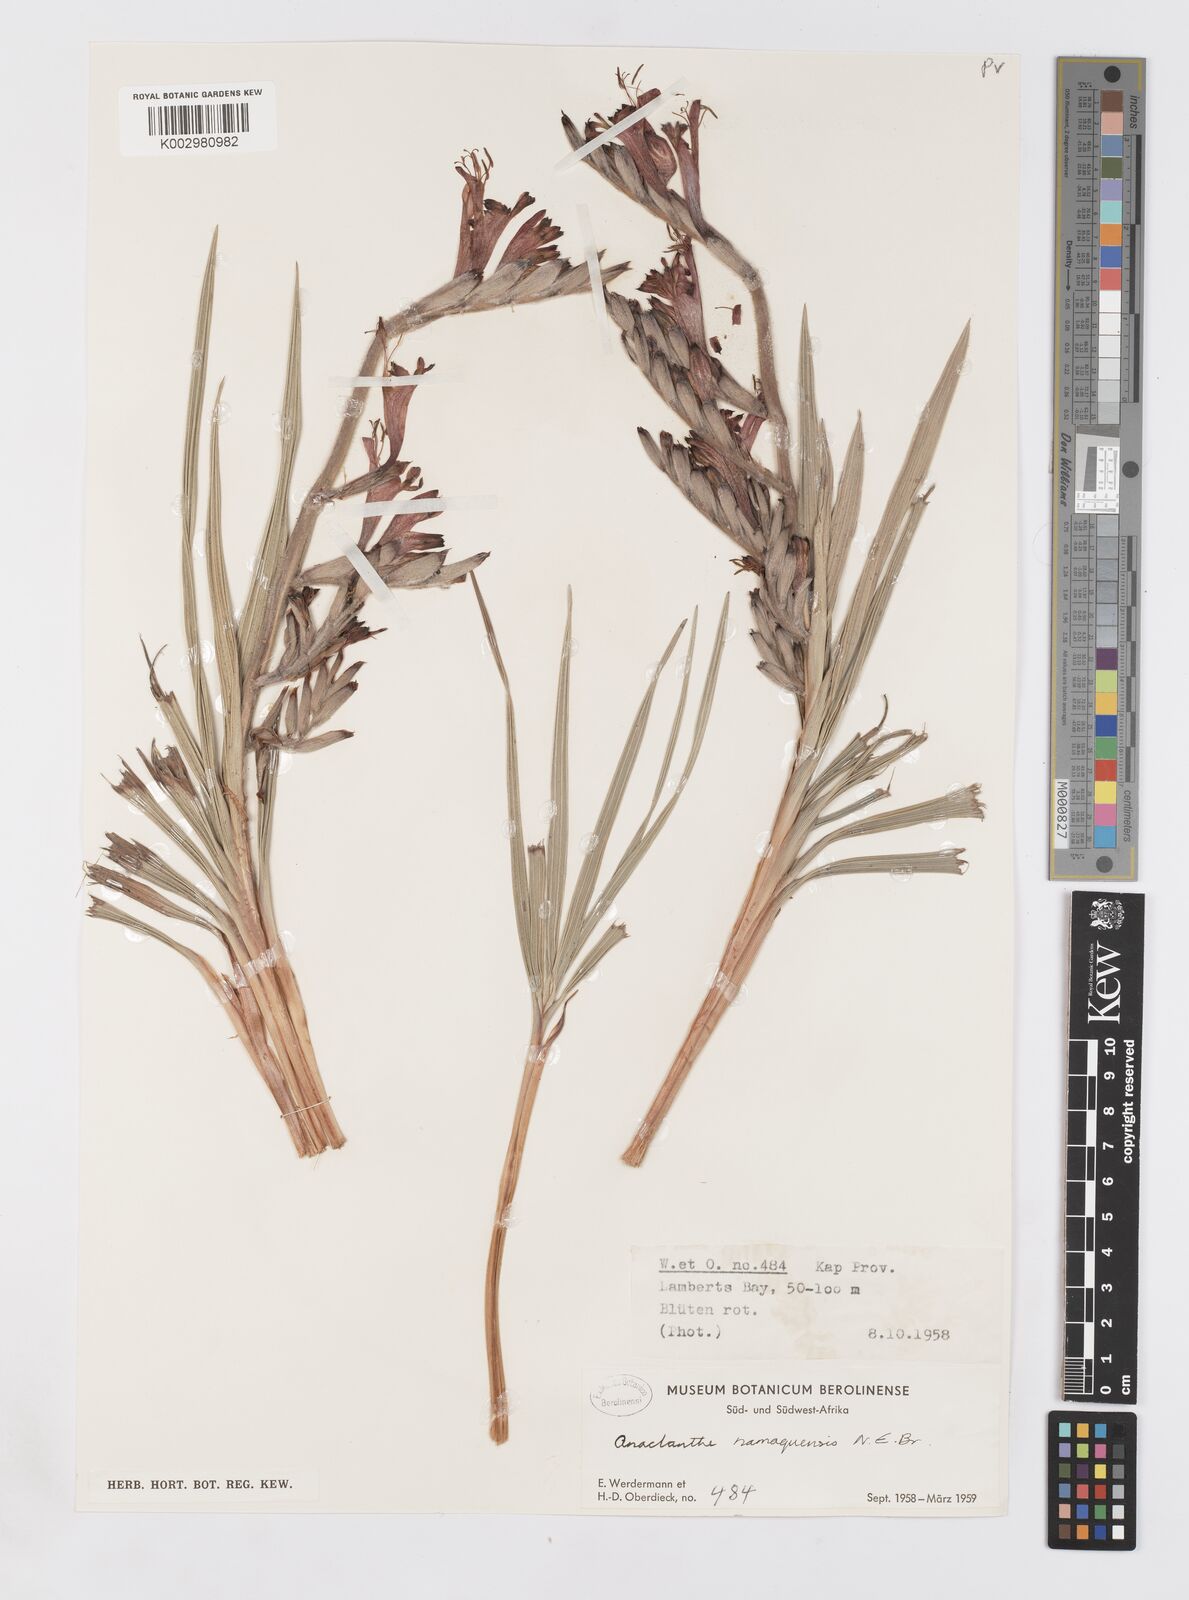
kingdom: Plantae
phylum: Tracheophyta
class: Liliopsida
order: Asparagales
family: Iridaceae
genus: Babiana
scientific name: Babiana
